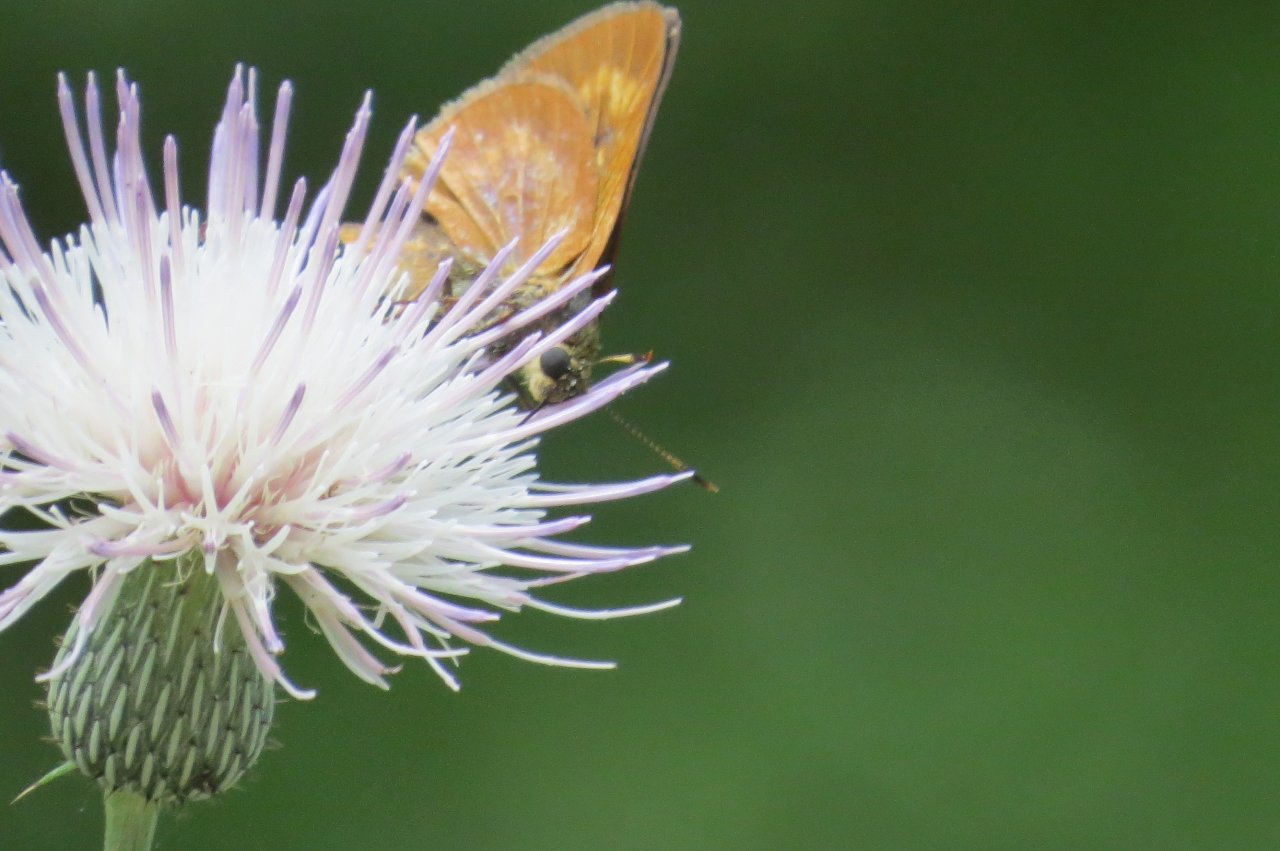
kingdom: Animalia
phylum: Arthropoda
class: Insecta
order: Lepidoptera
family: Hesperiidae
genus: Problema
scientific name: Problema byssus
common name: Byssus Skipper
